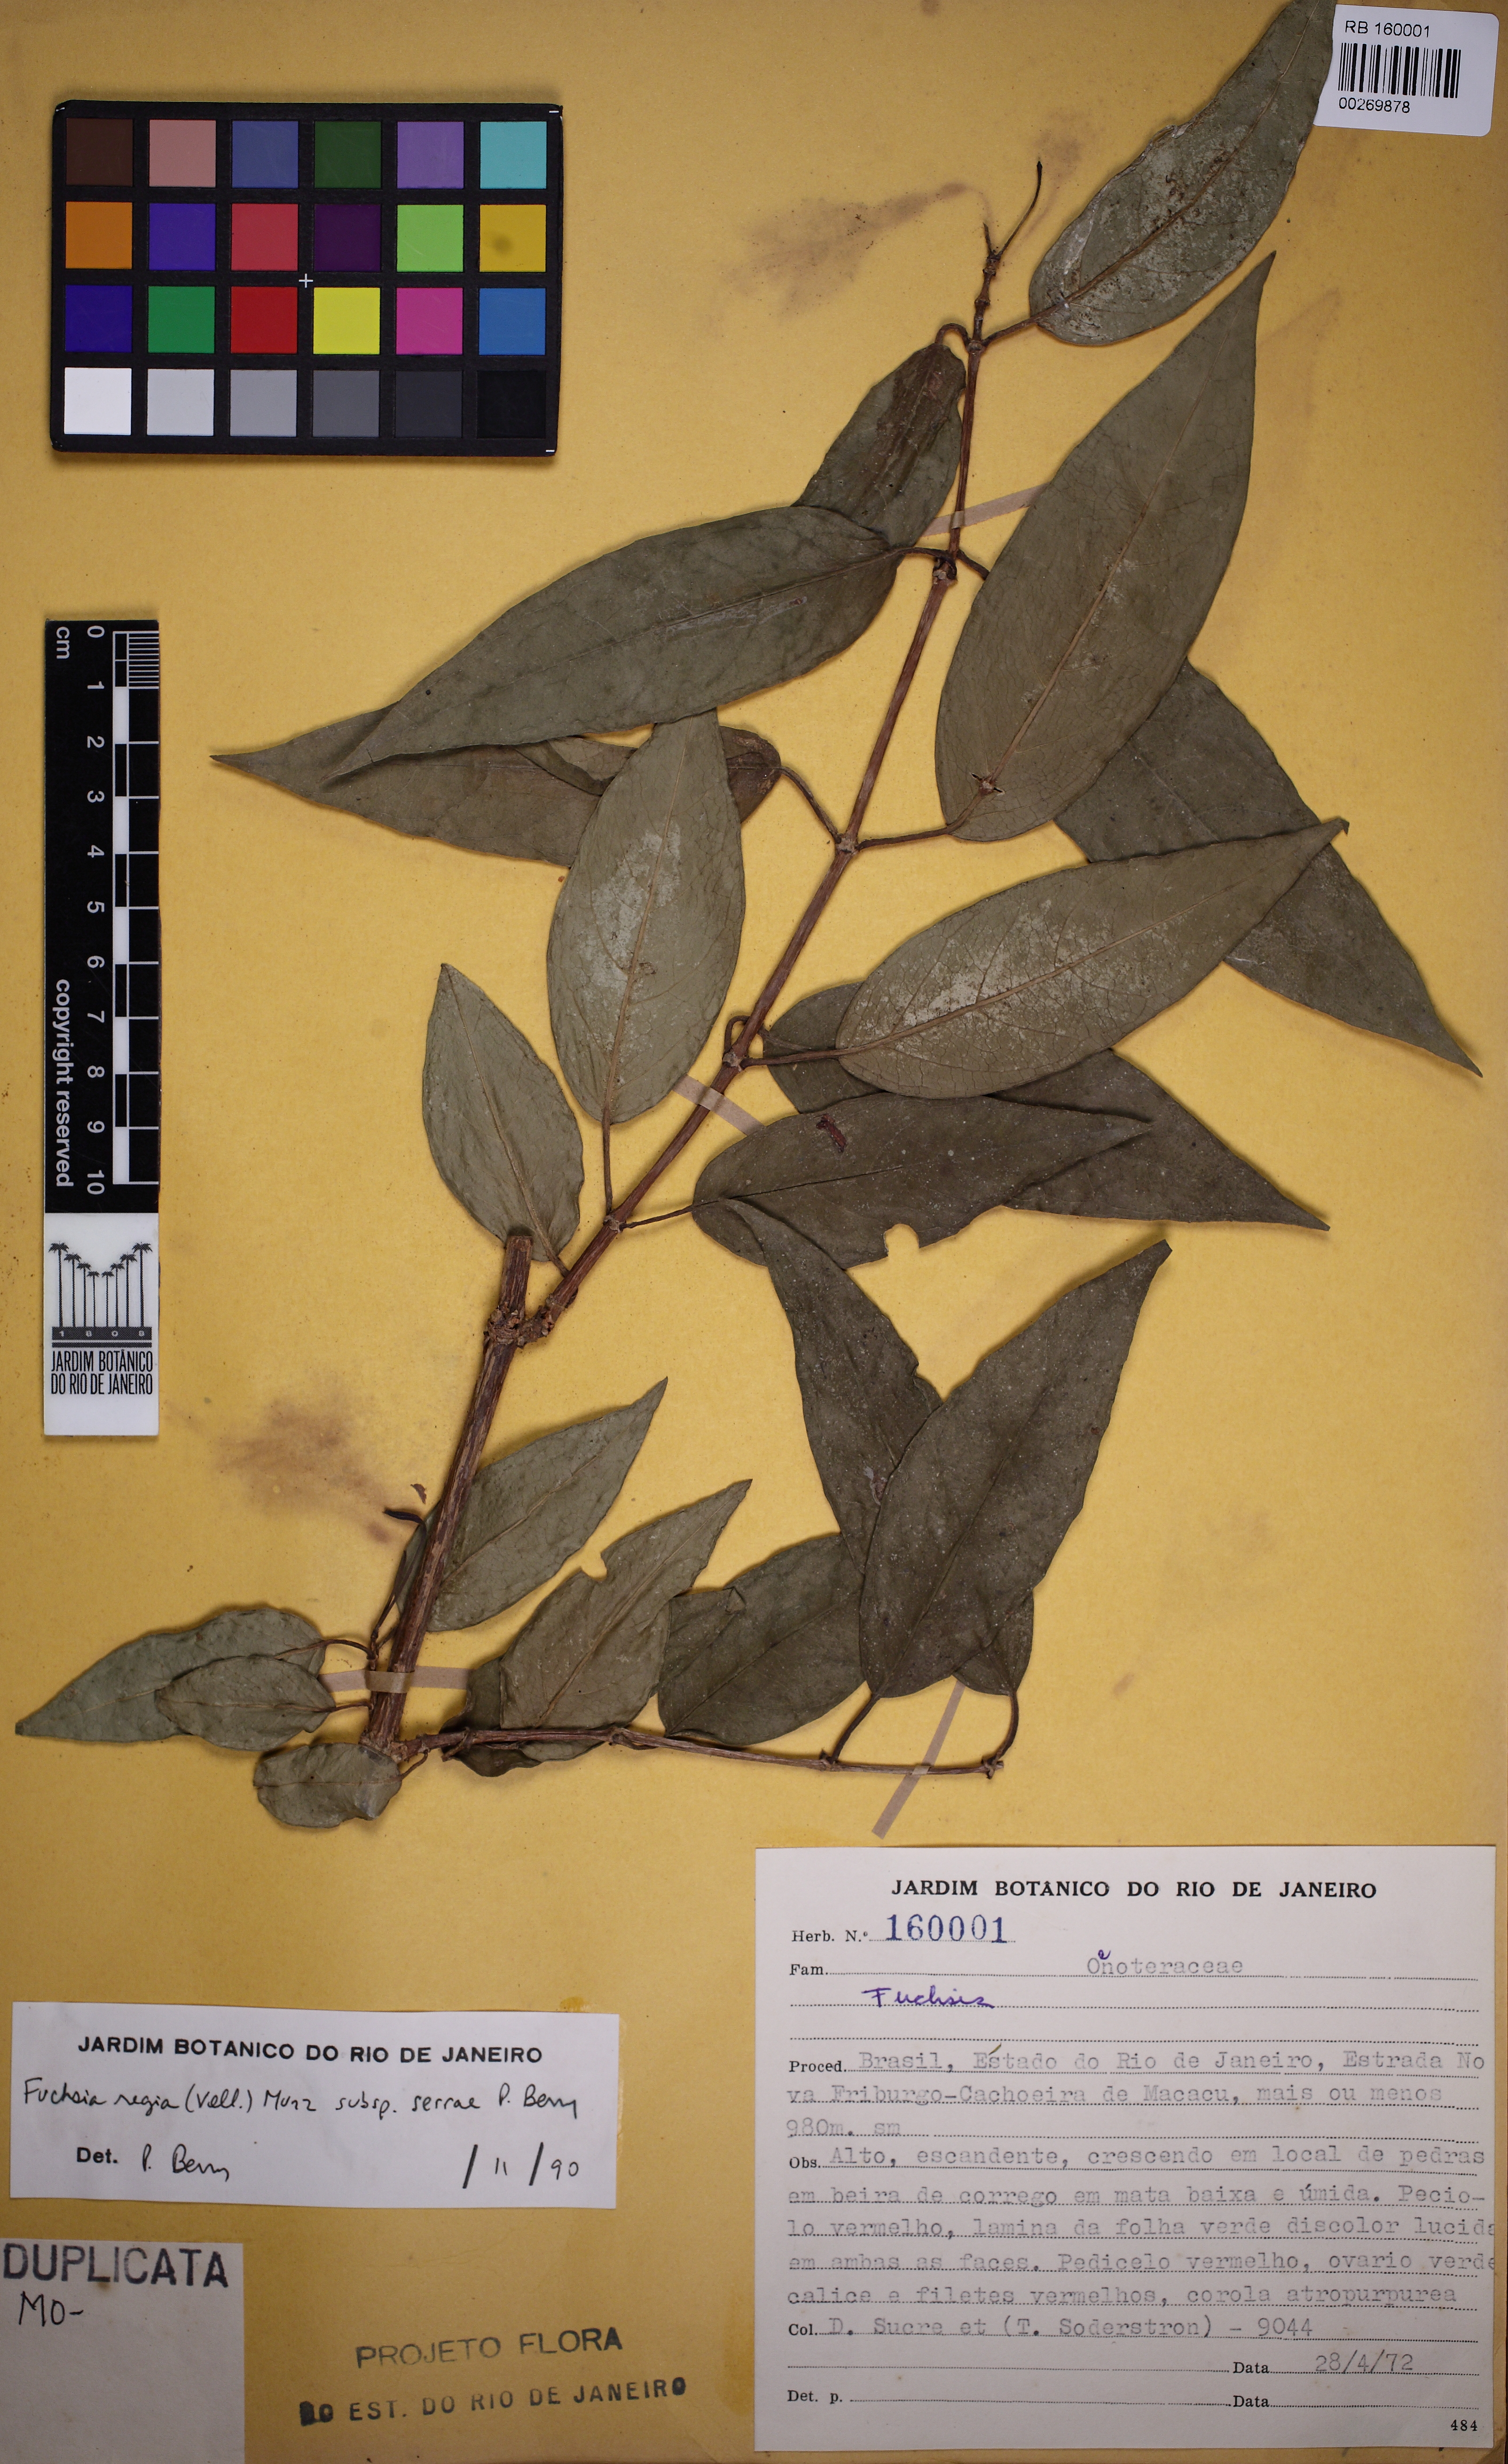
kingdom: Plantae
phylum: Tracheophyta
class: Magnoliopsida
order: Myrtales
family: Onagraceae
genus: Fuchsia
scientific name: Fuchsia regia
